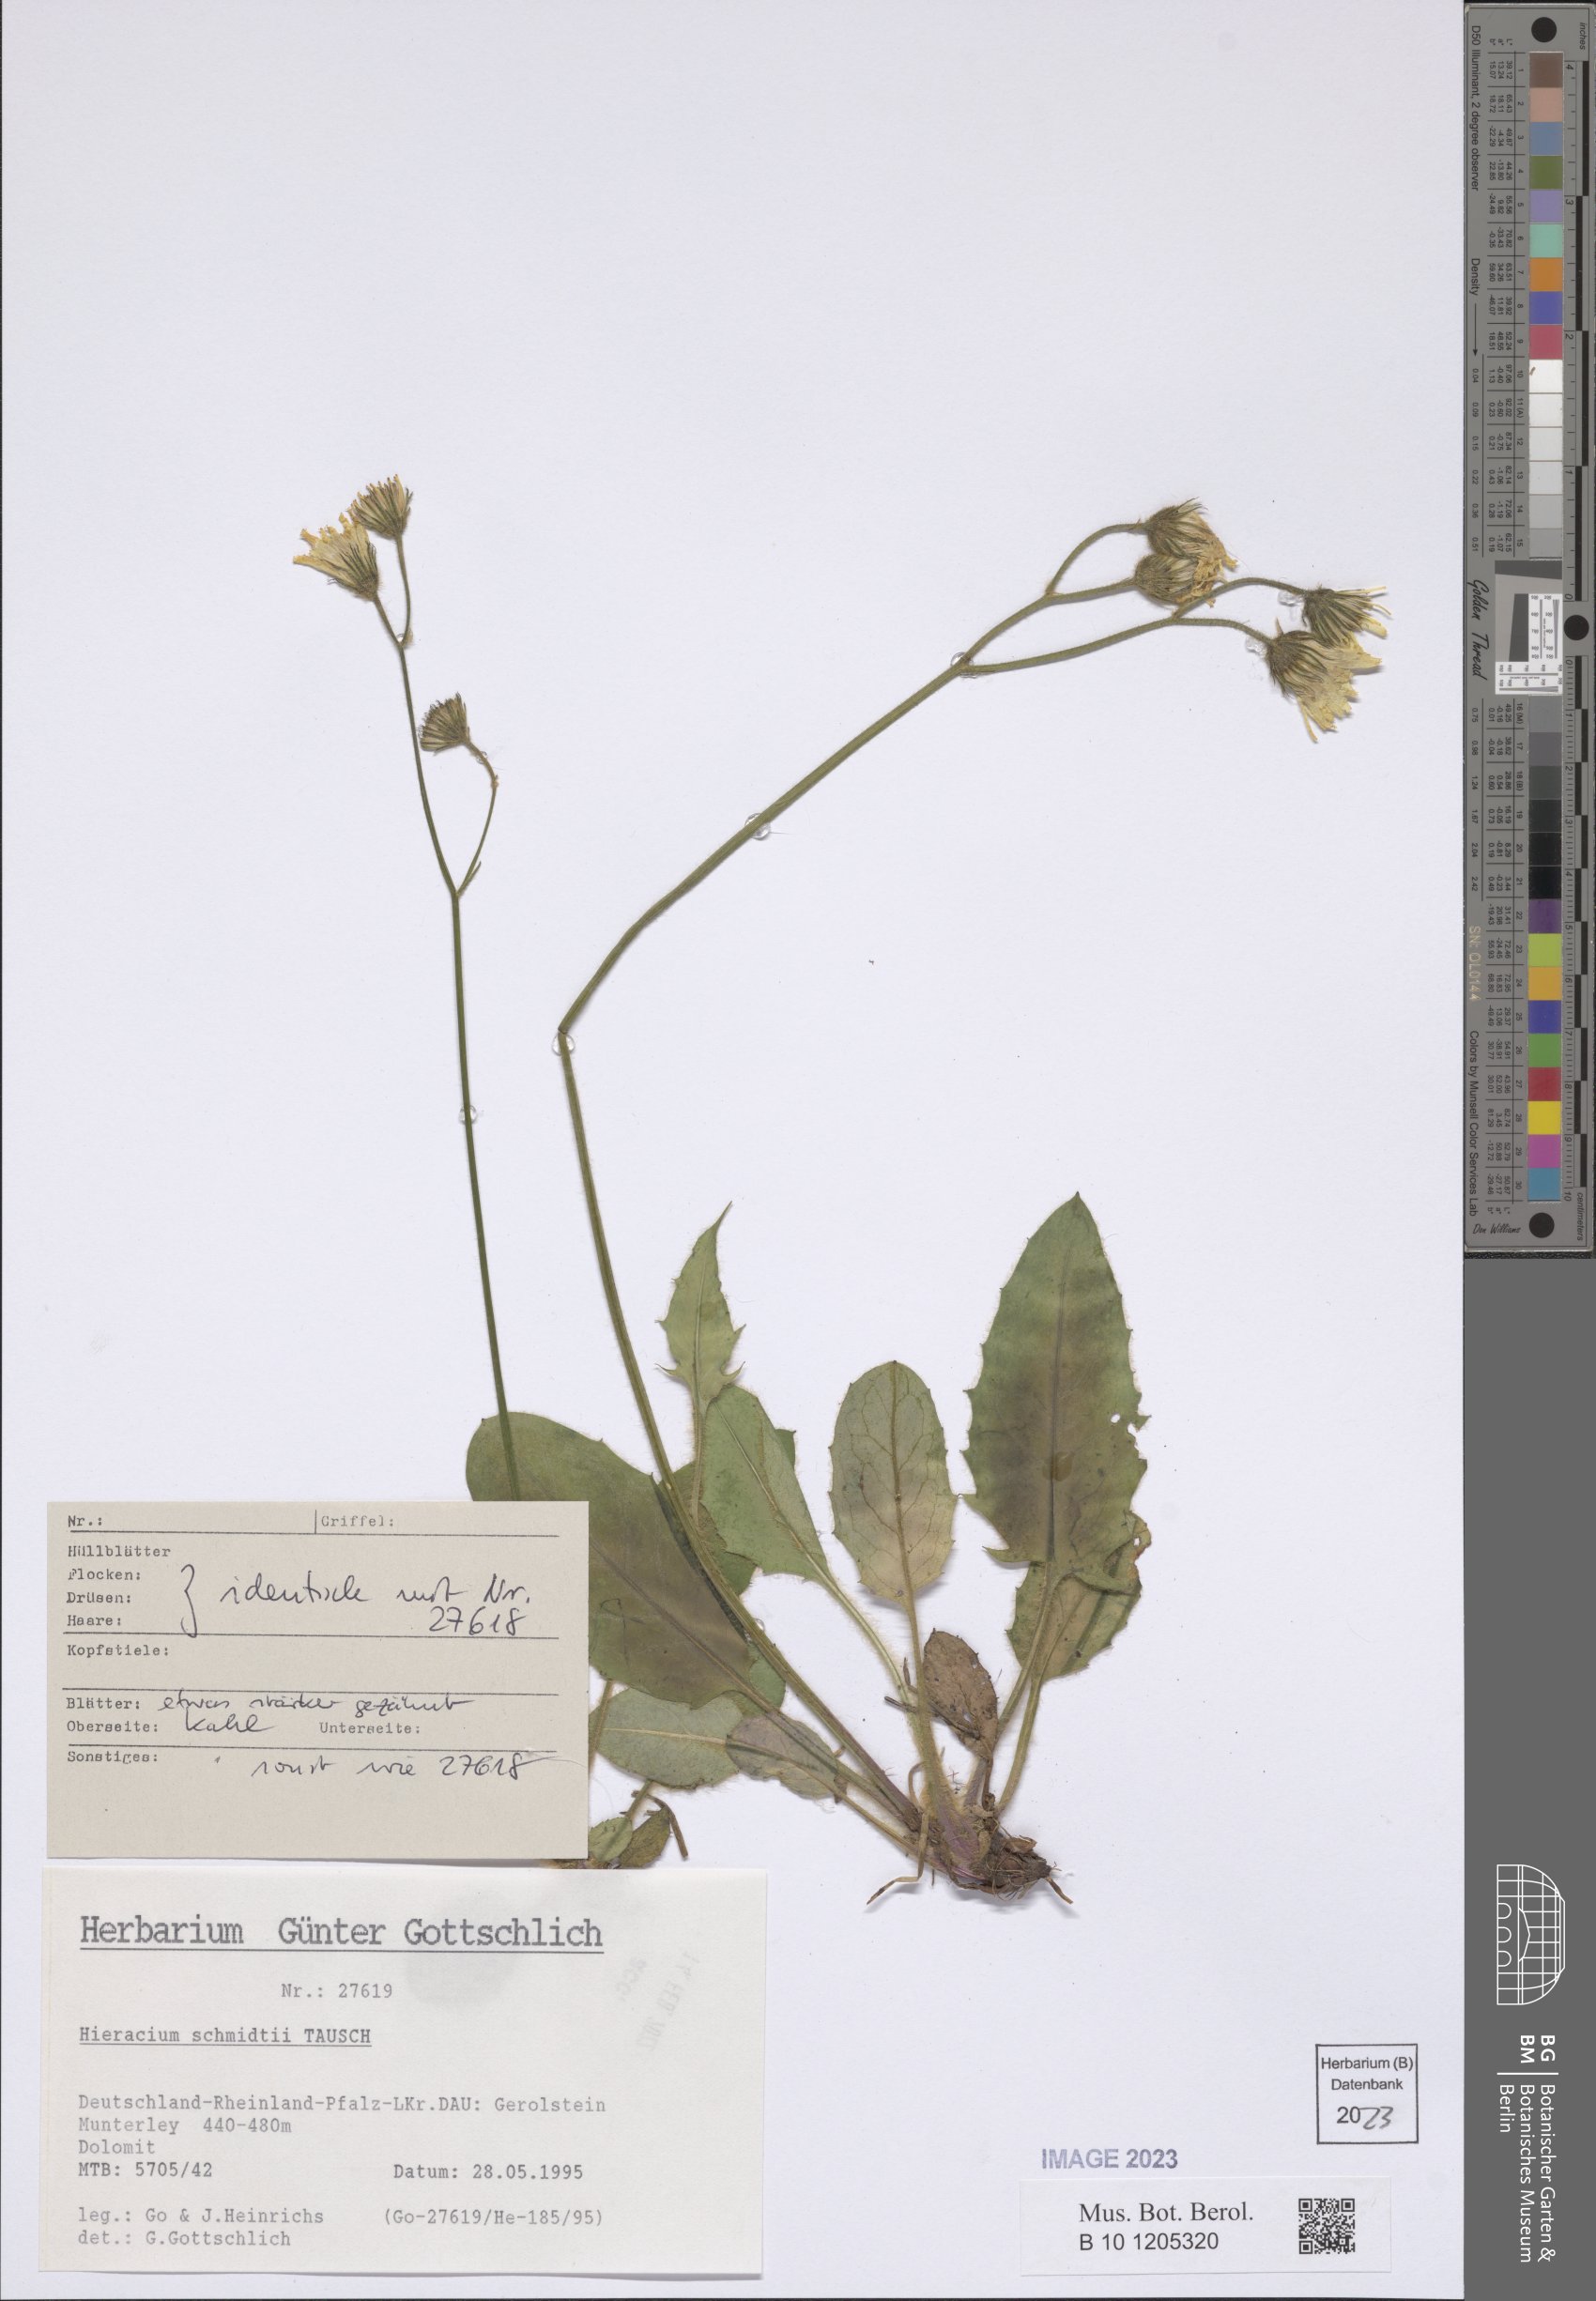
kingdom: Plantae
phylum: Tracheophyta
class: Magnoliopsida
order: Asterales
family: Asteraceae
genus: Hieracium
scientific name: Hieracium schmidtii
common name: Schmidt's hawkweed
